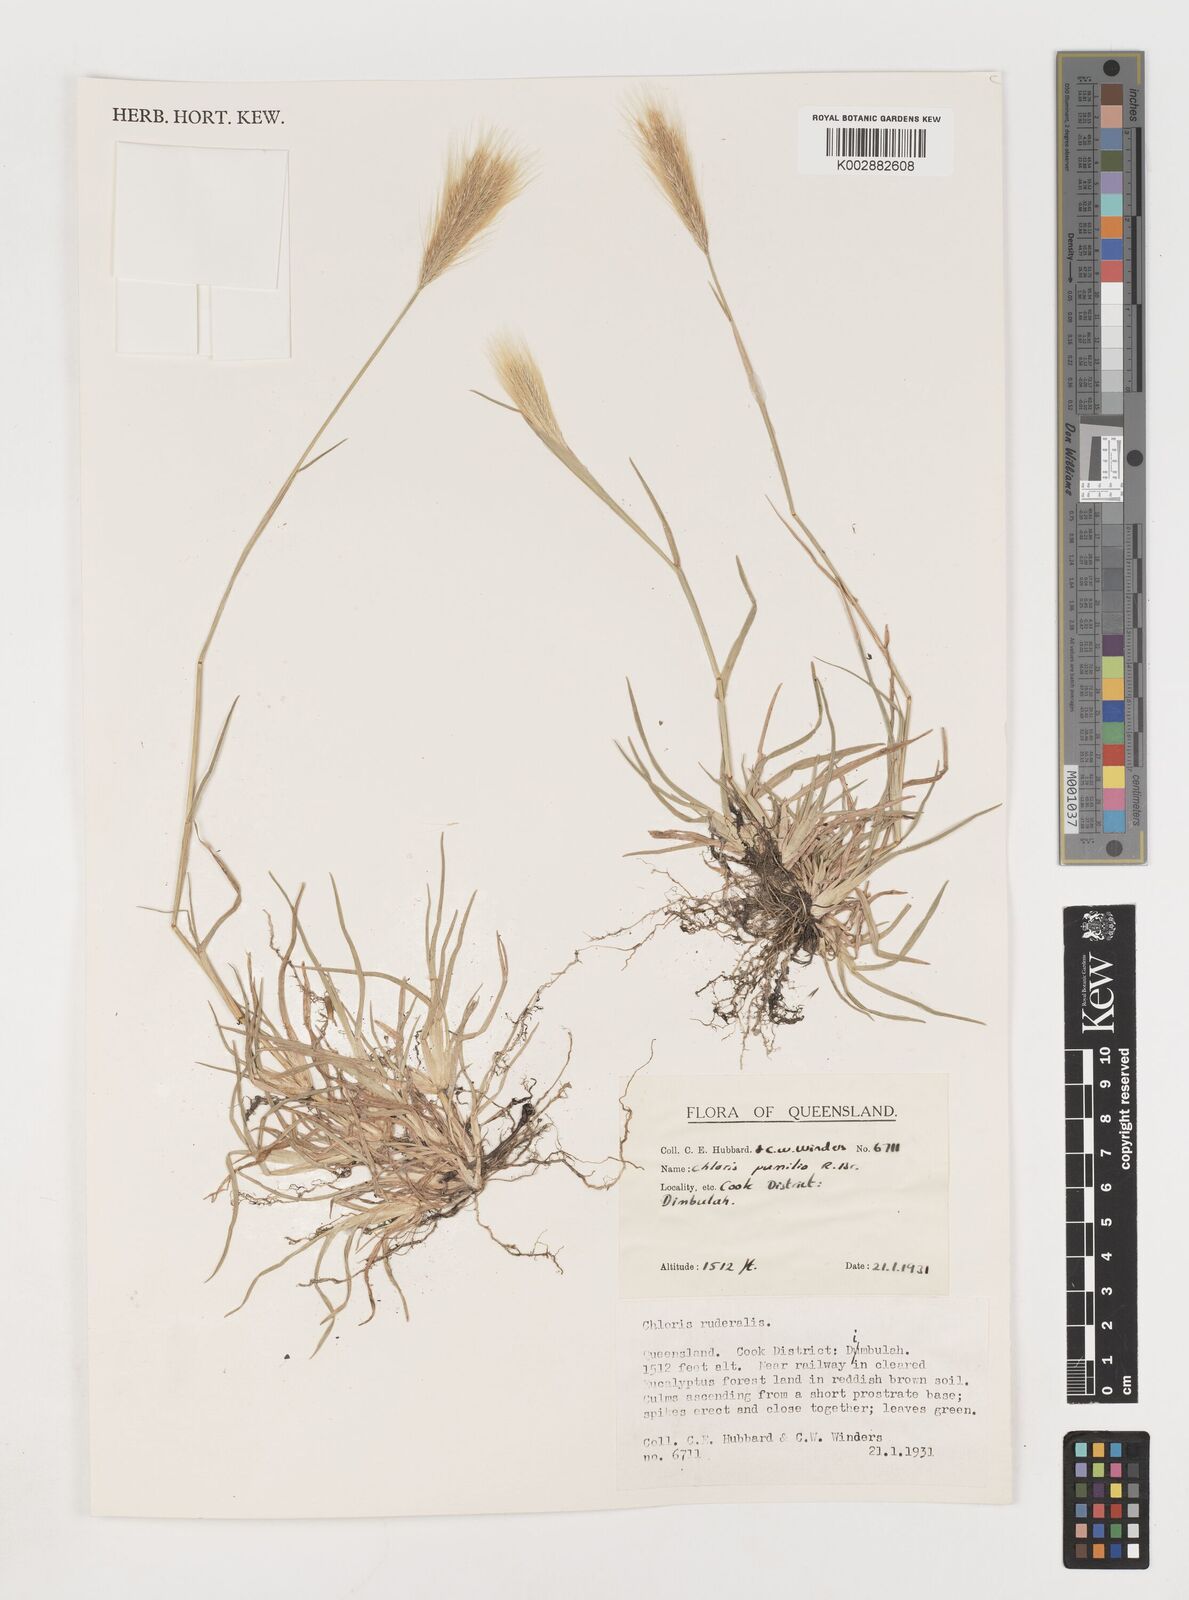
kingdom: Plantae
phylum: Tracheophyta
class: Liliopsida
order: Poales
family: Poaceae
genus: Chloris
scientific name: Chloris pumilio
